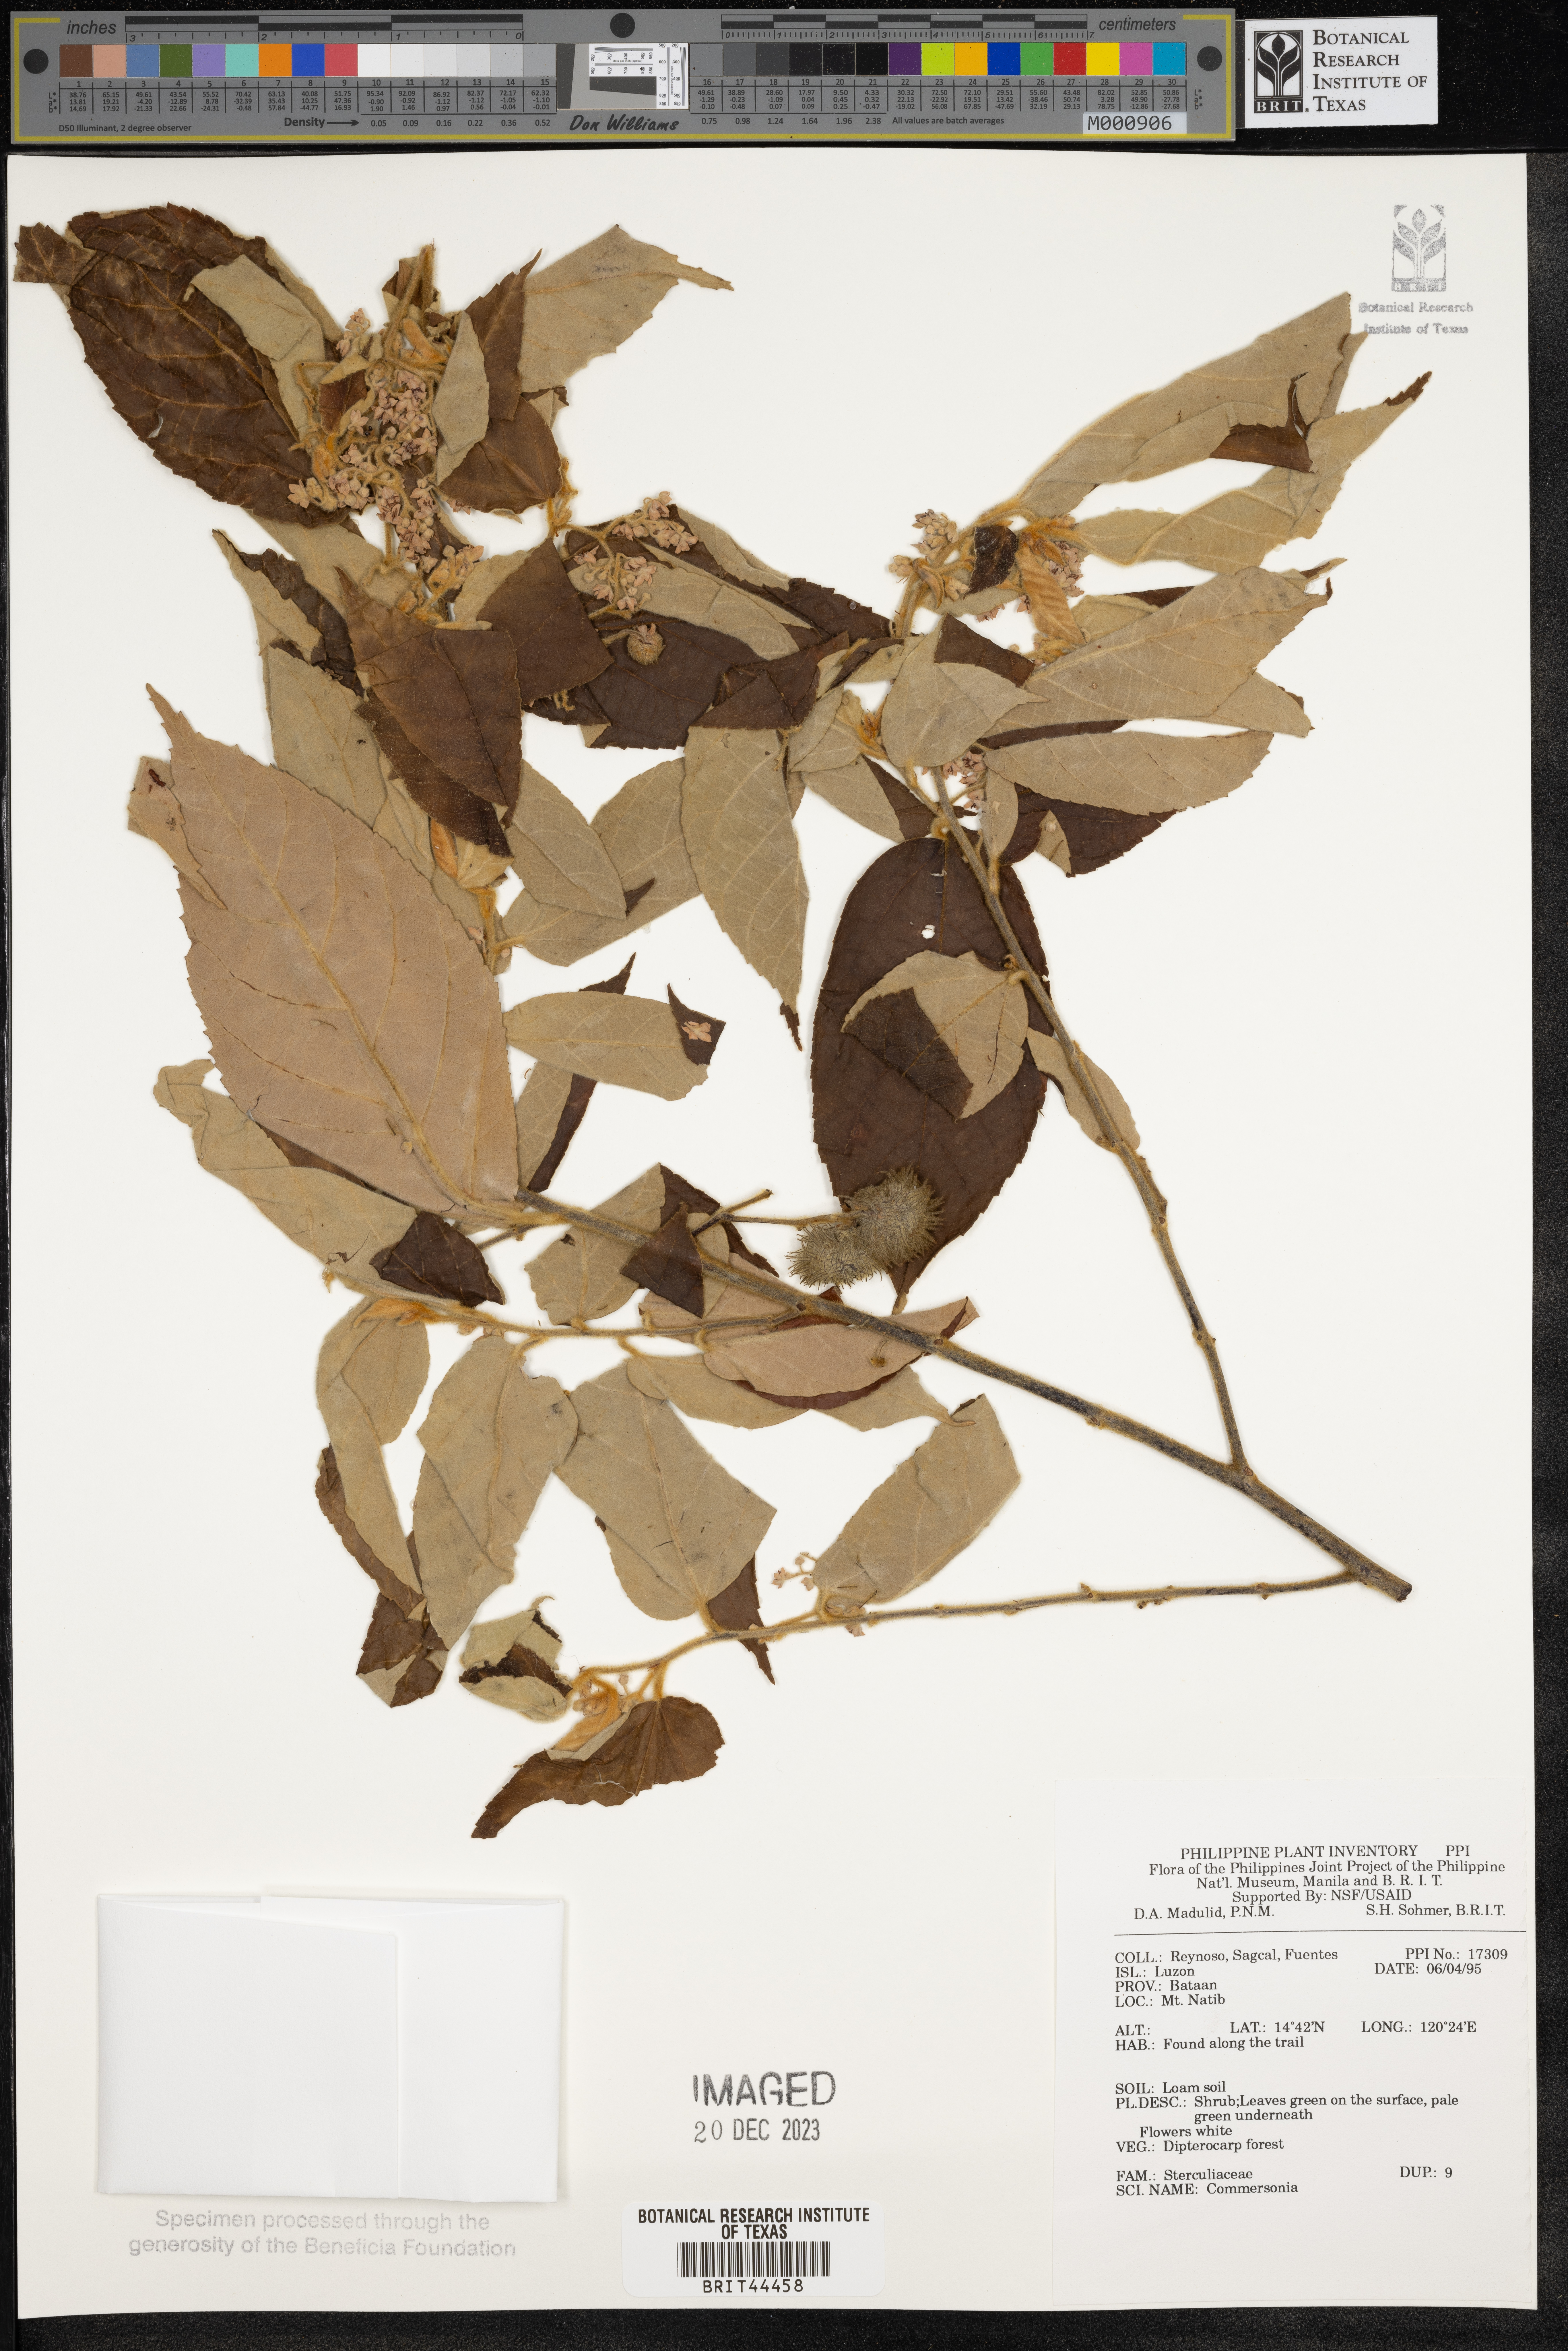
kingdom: Plantae
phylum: Tracheophyta
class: Magnoliopsida
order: Malvales
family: Malvaceae
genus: Commersonia
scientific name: Commersonia
